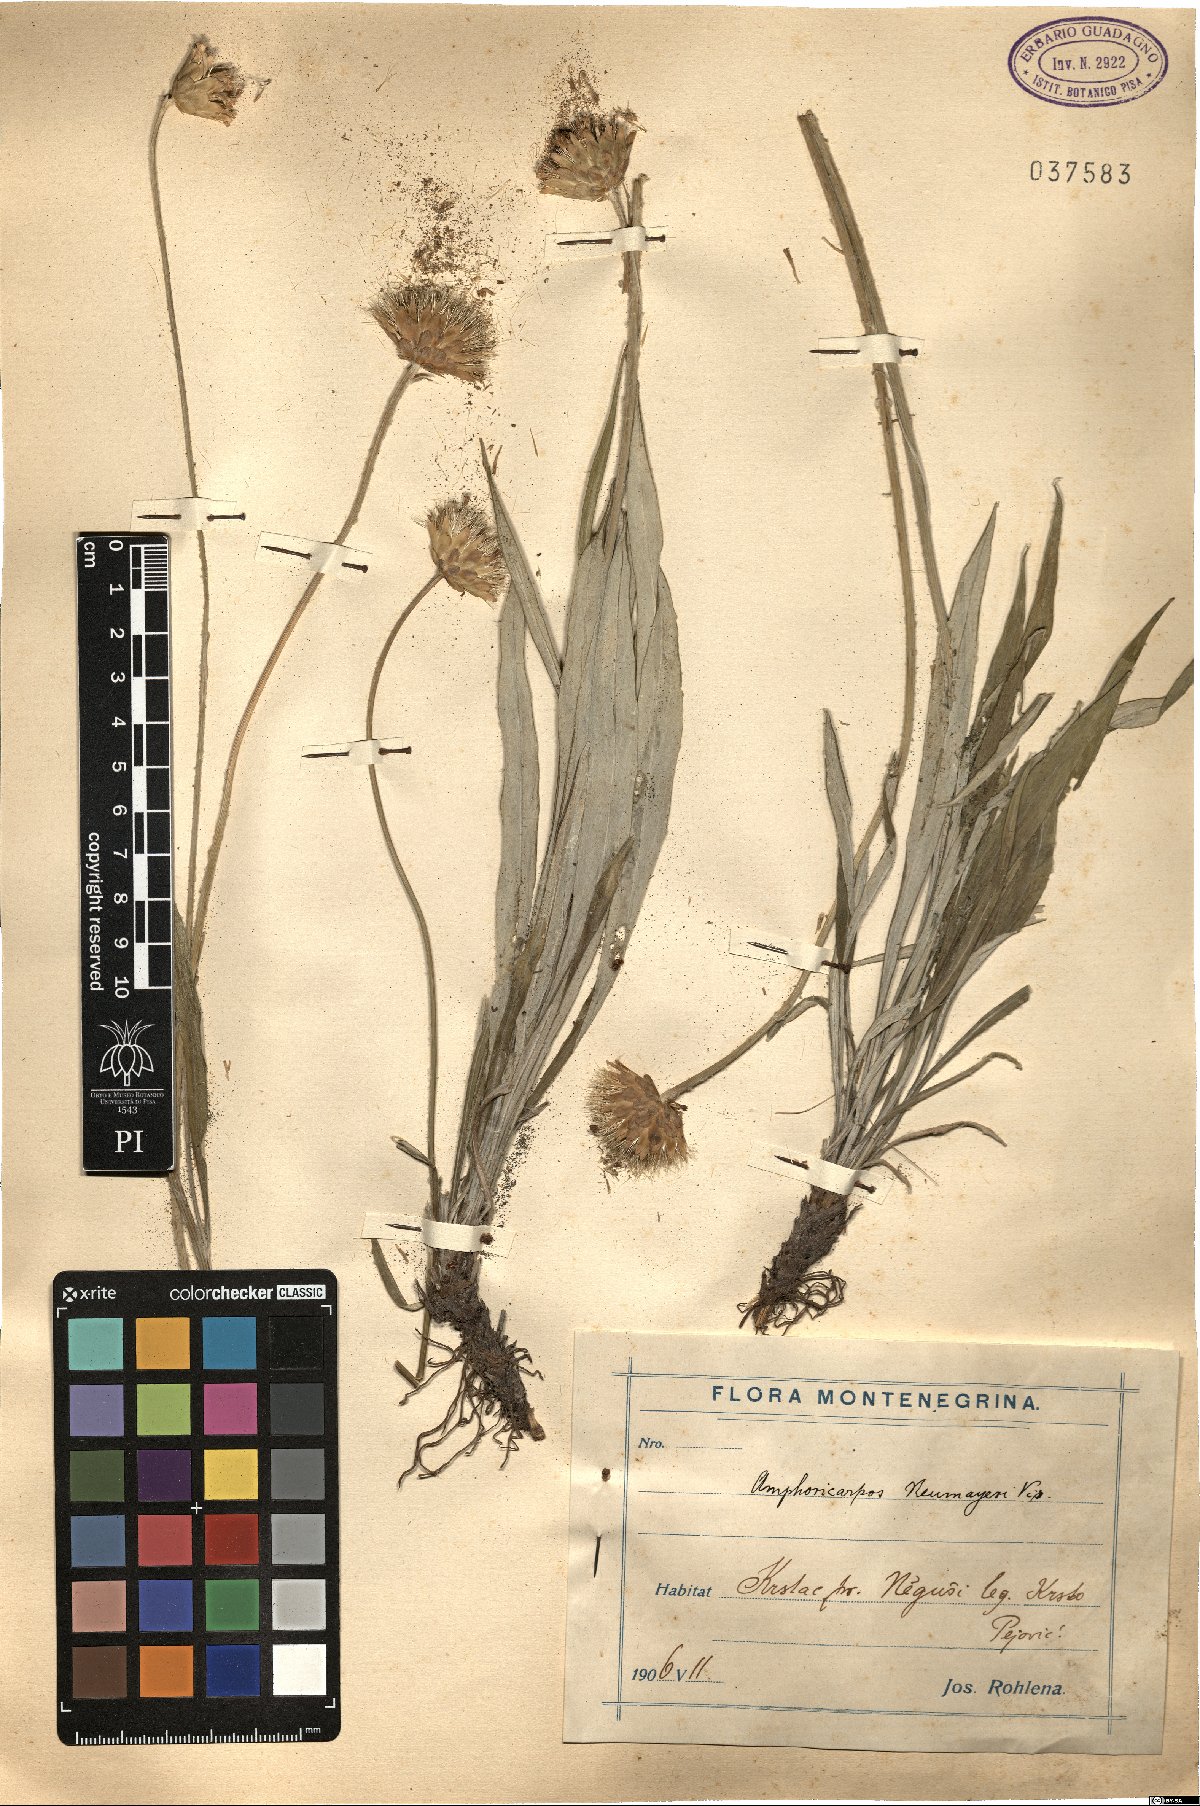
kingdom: Plantae
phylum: Tracheophyta
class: Magnoliopsida
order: Asterales
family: Asteraceae
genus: Amphoricarpos
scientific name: Amphoricarpos neumayerianus
